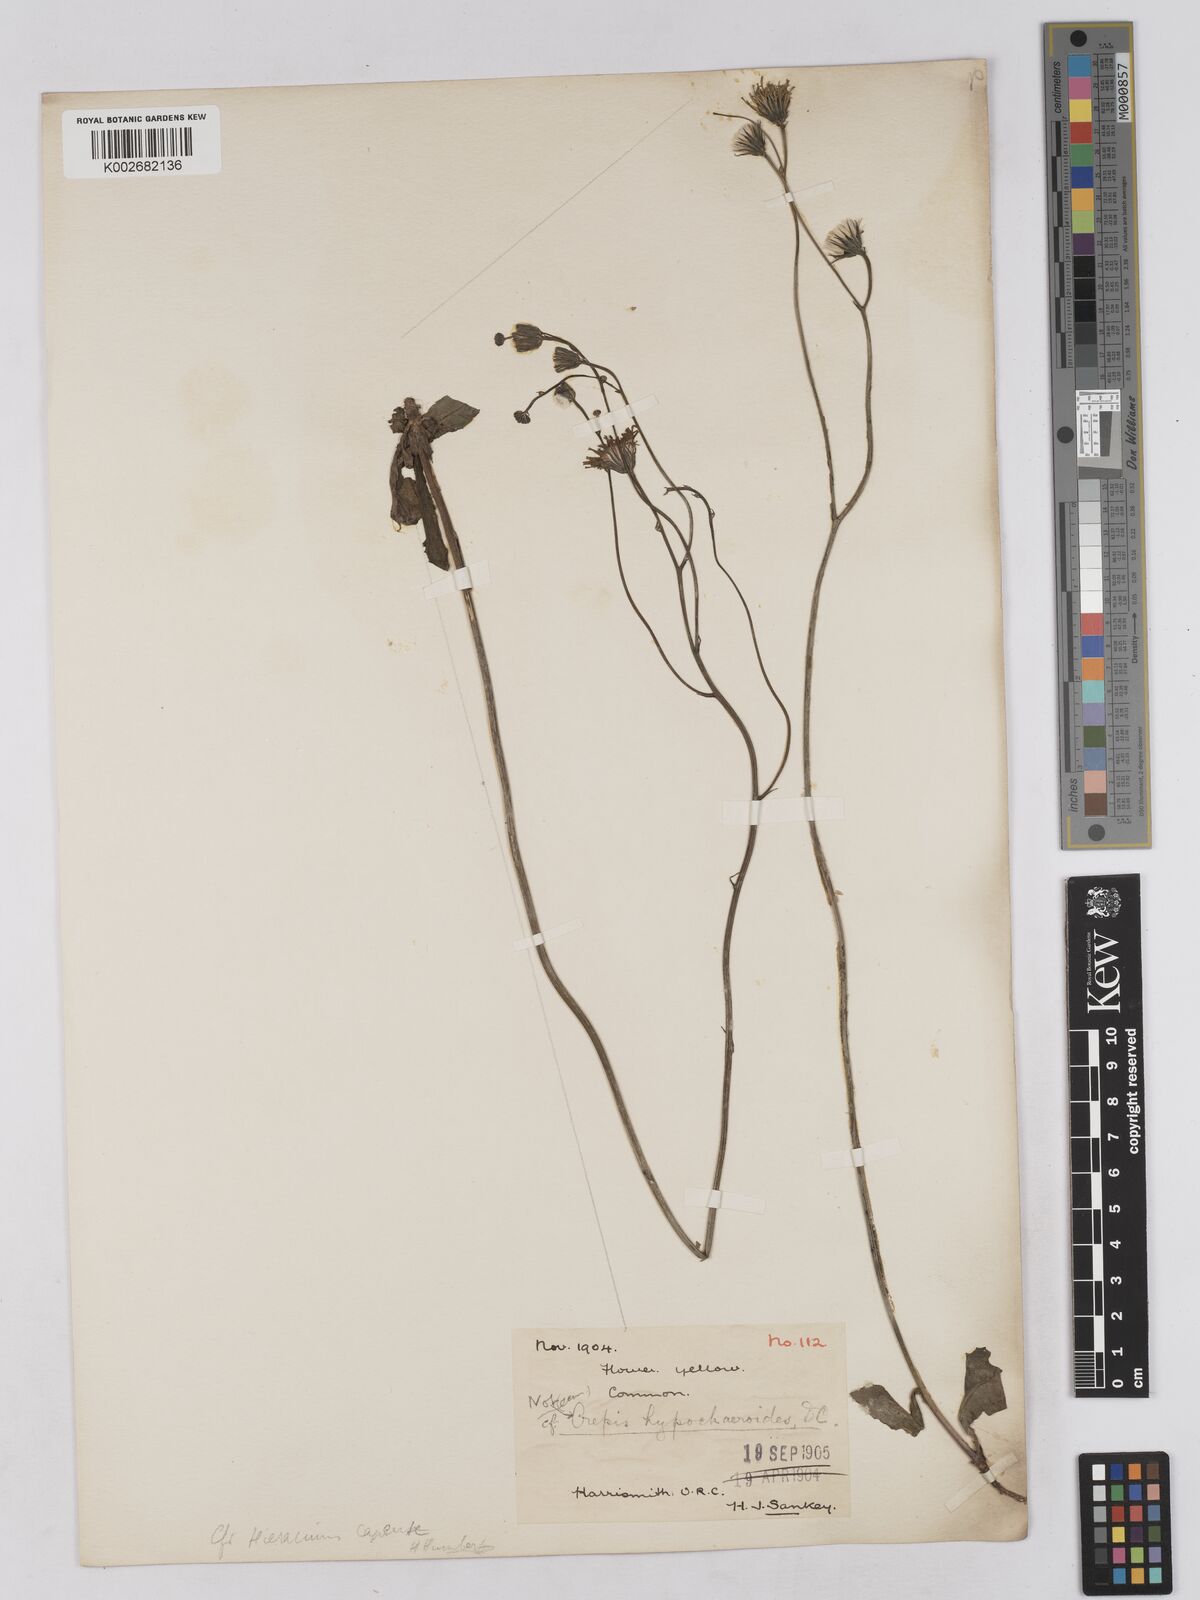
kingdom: Plantae
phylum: Tracheophyta
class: Magnoliopsida
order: Asterales
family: Asteraceae
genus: Tolpis
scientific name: Tolpis capensis
